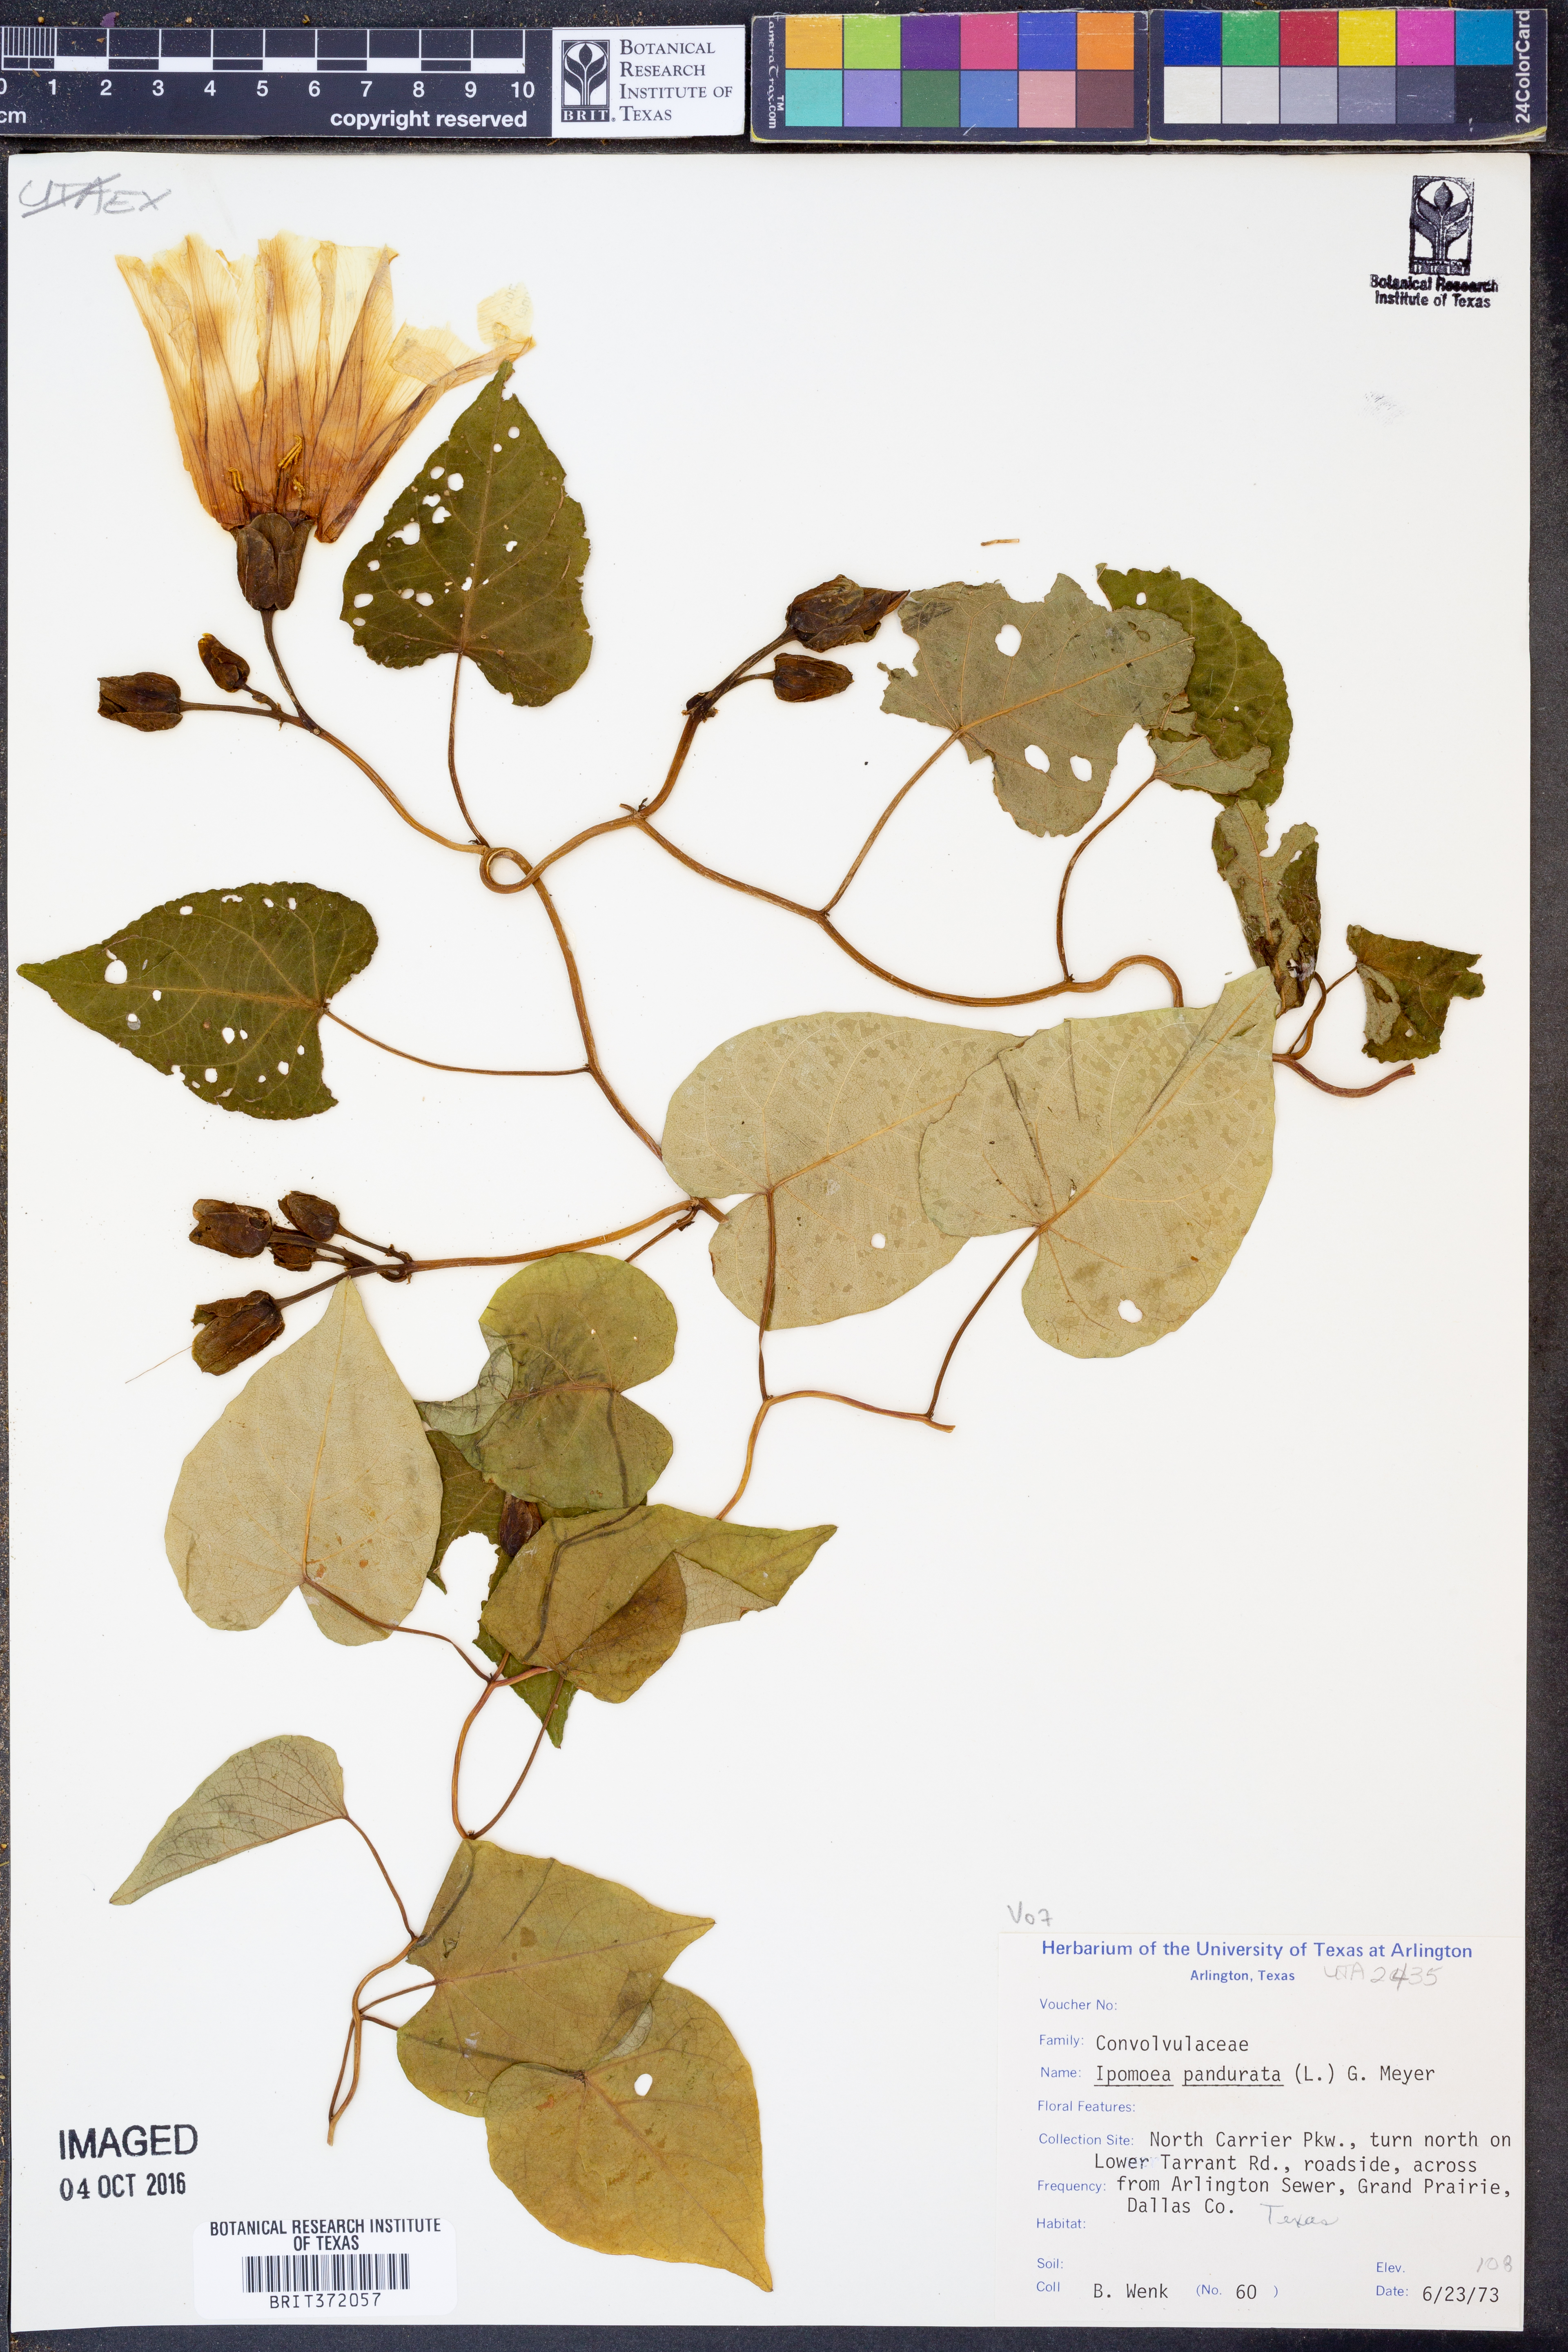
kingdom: Plantae
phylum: Tracheophyta
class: Magnoliopsida
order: Solanales
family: Convolvulaceae
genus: Ipomoea
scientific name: Ipomoea pandurata
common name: Man-of-the-earth
